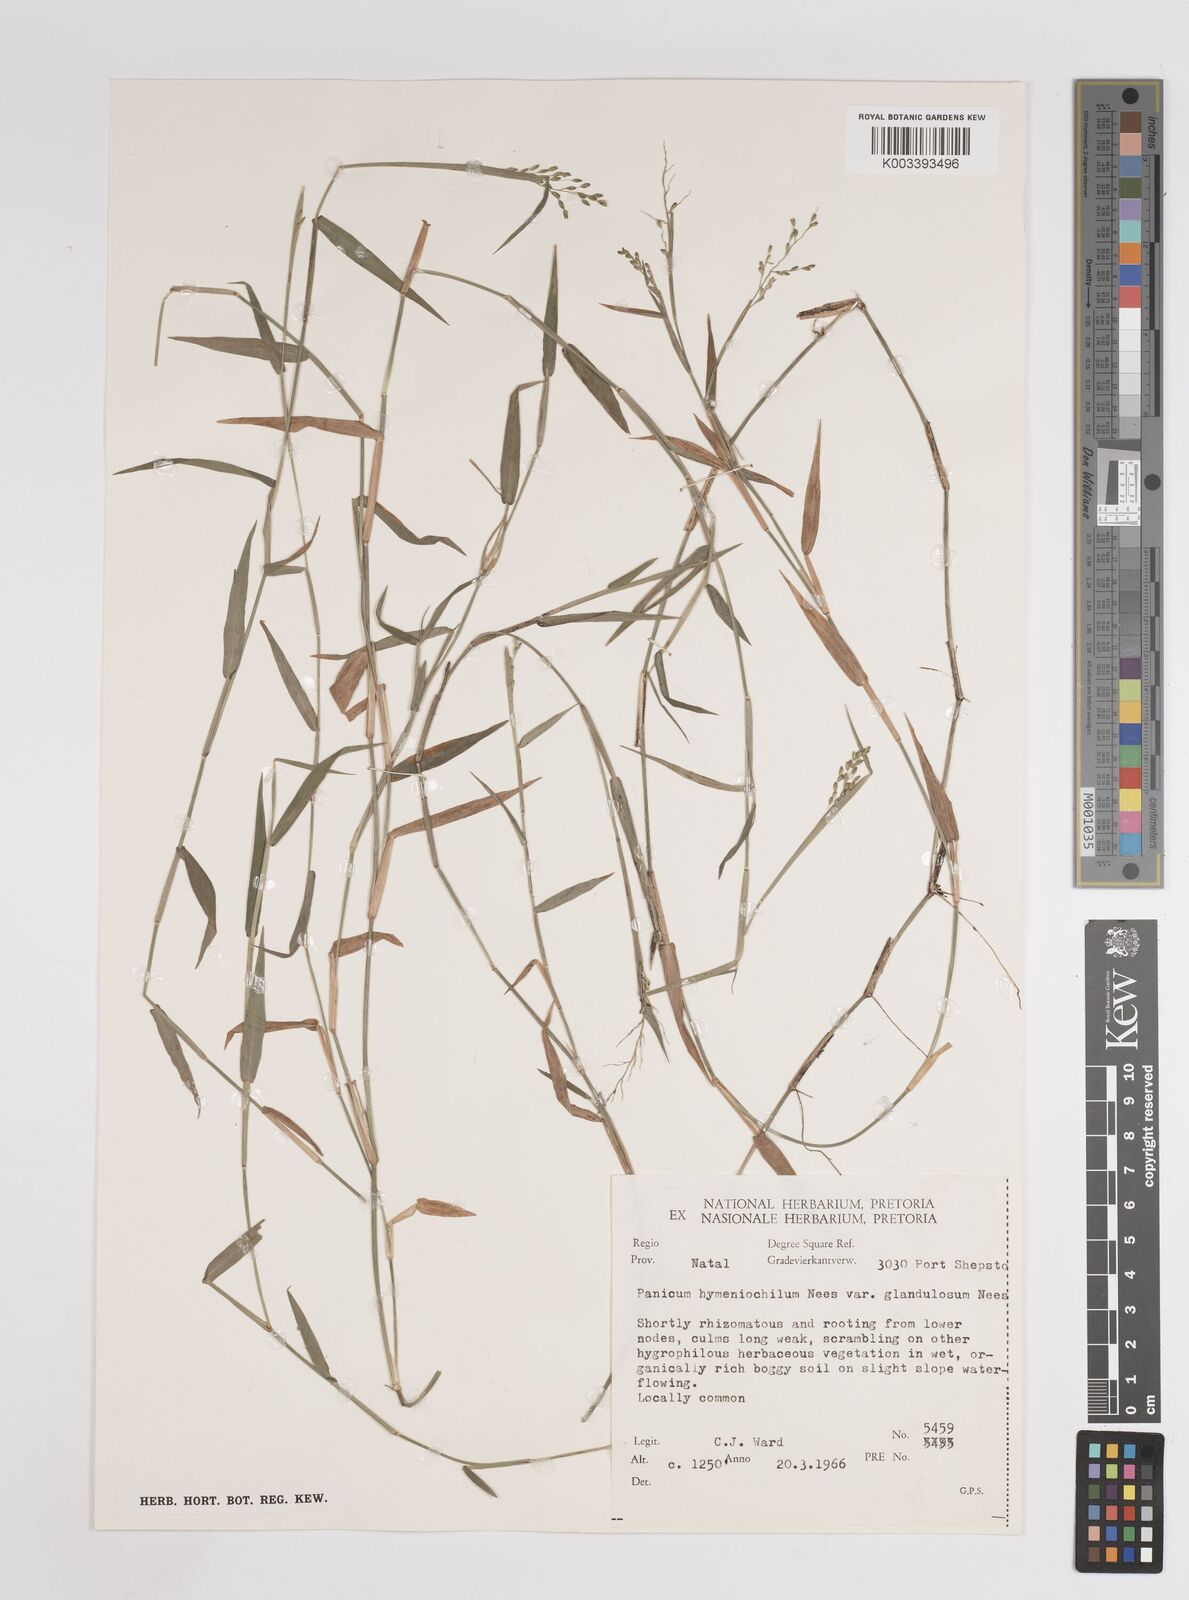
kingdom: Plantae
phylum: Tracheophyta
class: Liliopsida
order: Poales
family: Poaceae
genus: Adenochloa
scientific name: Adenochloa hymeniochila
